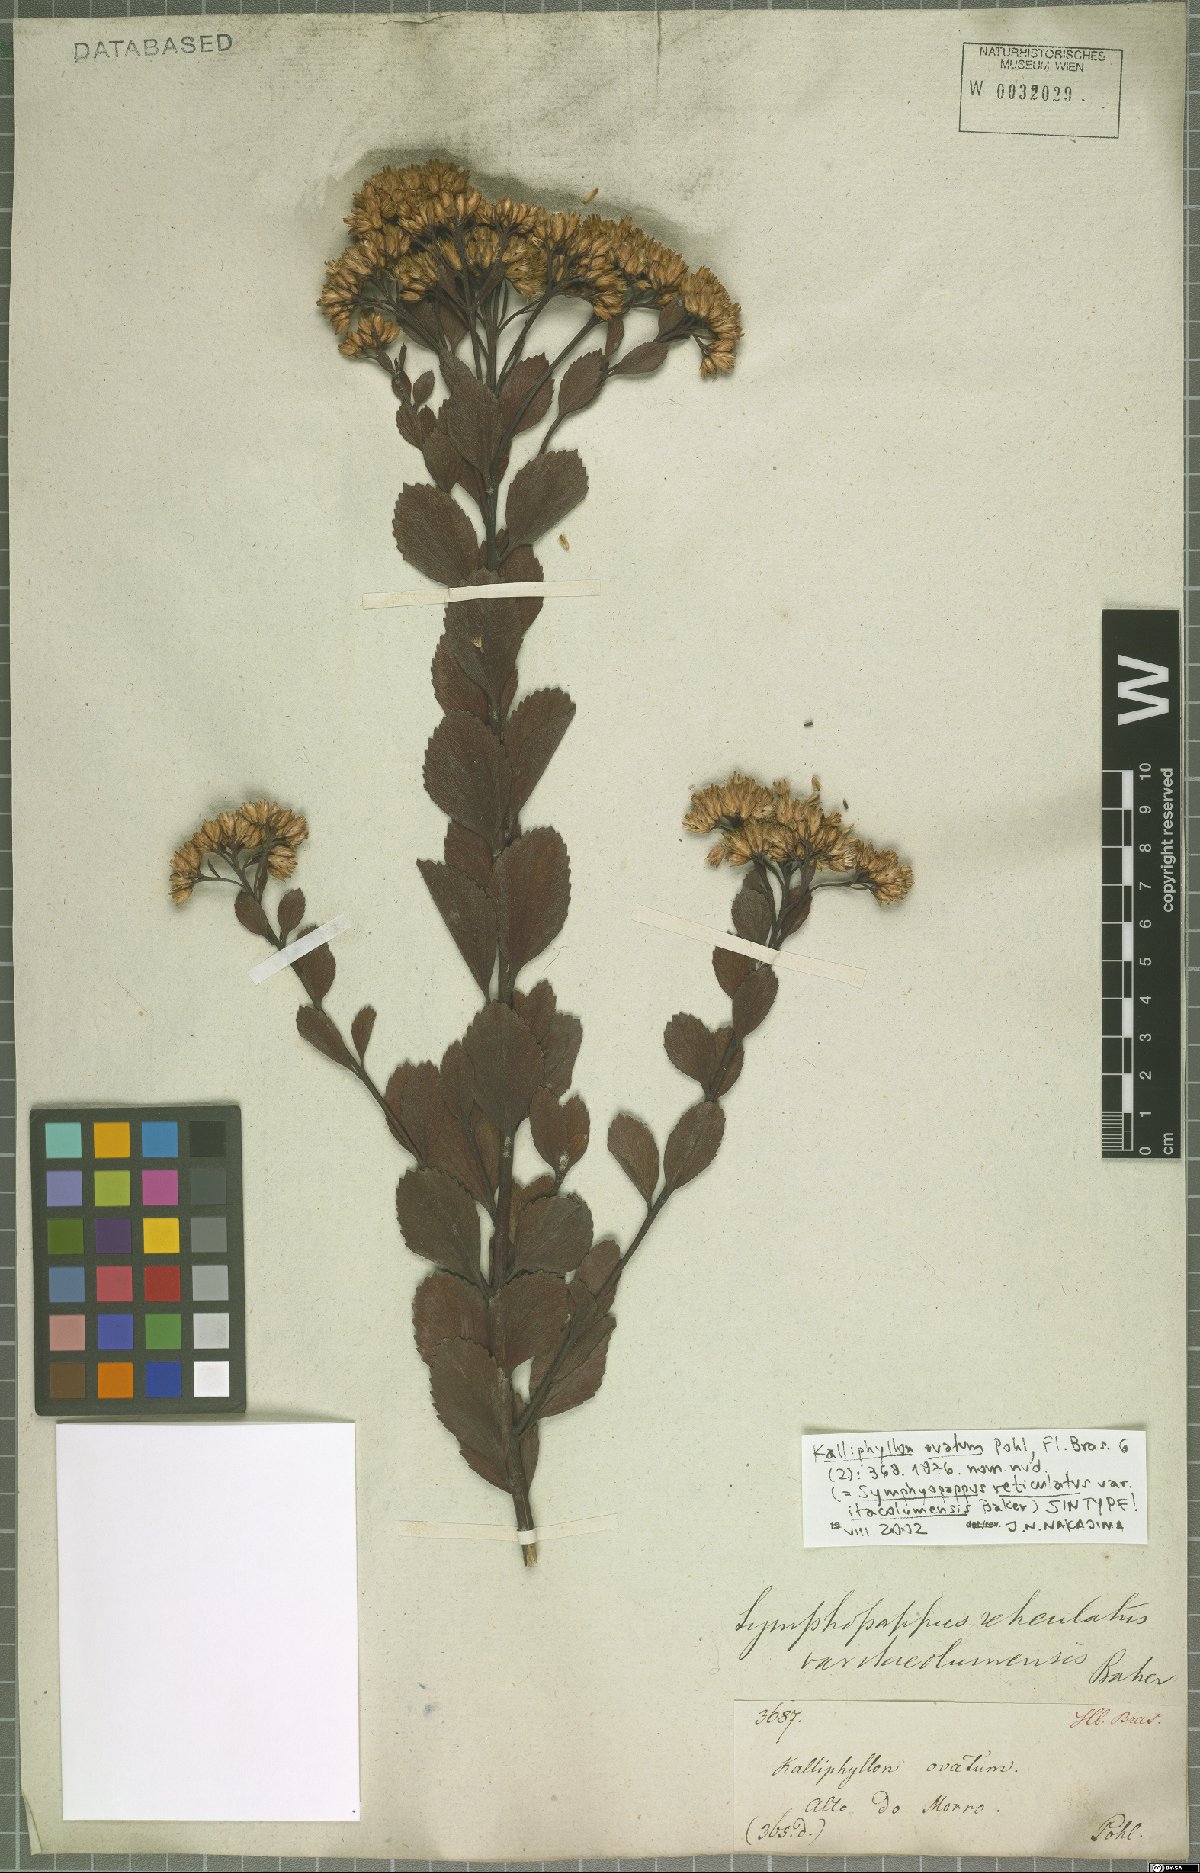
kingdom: Plantae
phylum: Tracheophyta
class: Magnoliopsida
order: Asterales
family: Asteraceae
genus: Symphyopappus
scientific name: Symphyopappus reticulatus
